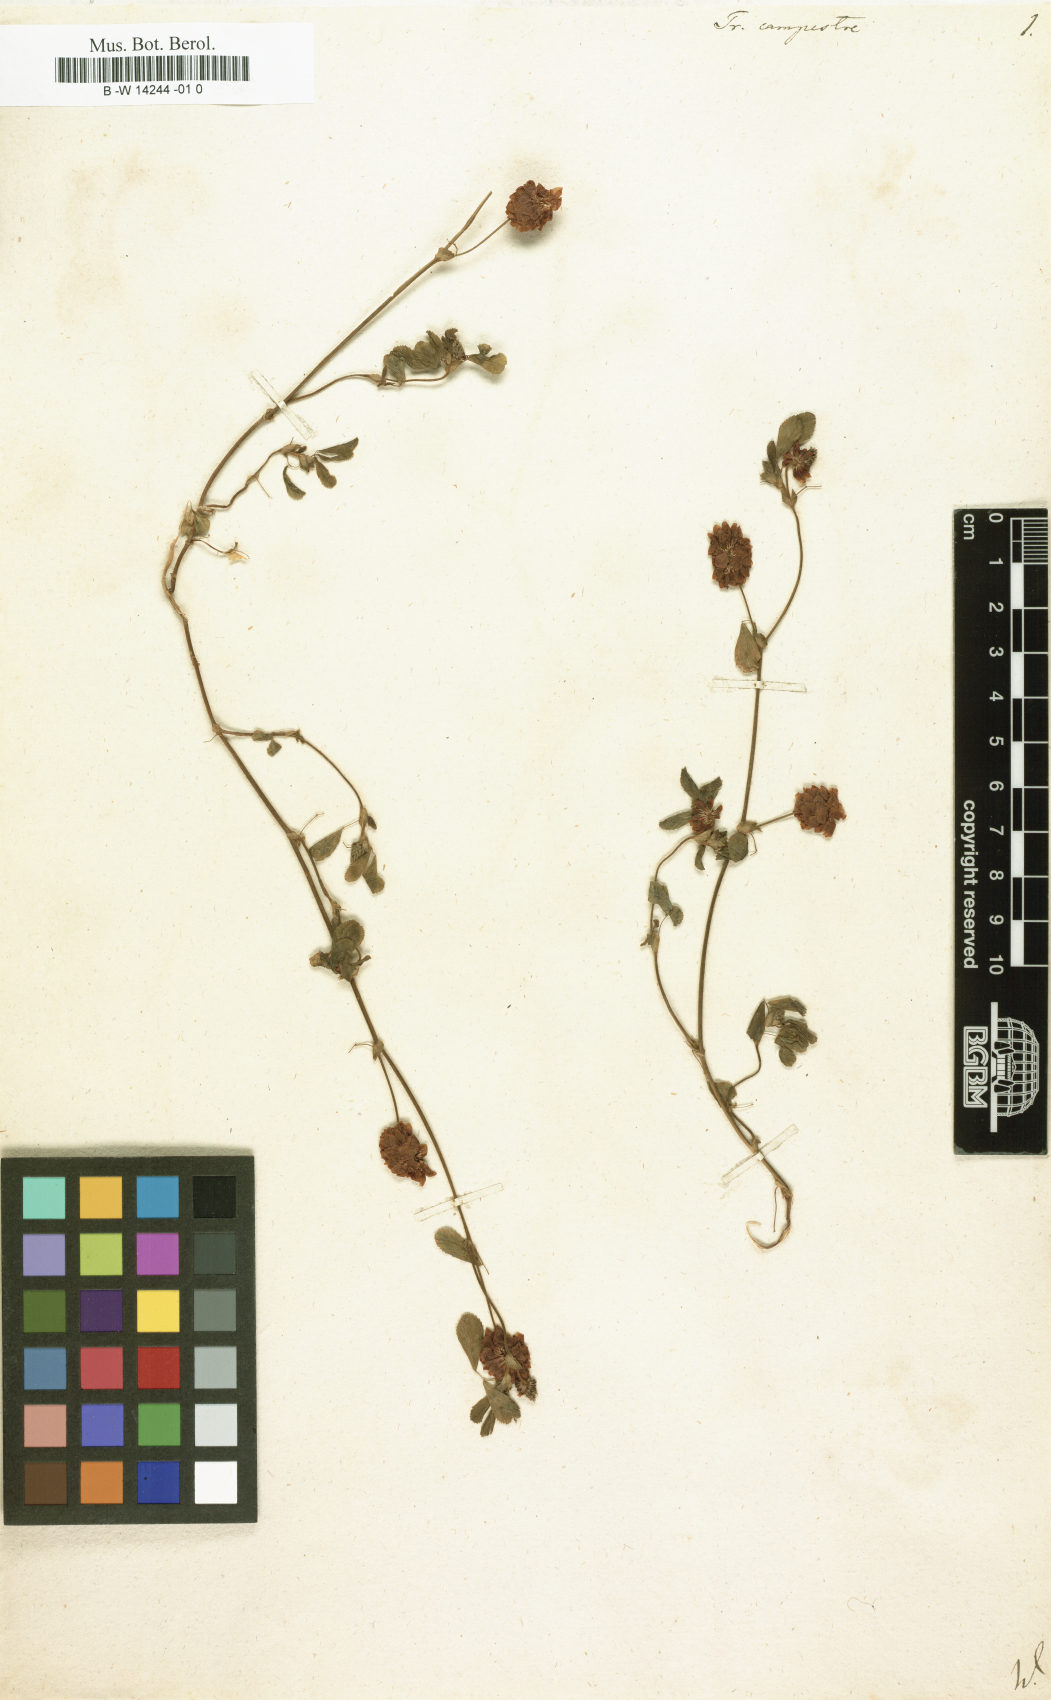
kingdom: Plantae
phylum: Tracheophyta
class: Magnoliopsida
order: Fabales
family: Fabaceae
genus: Trifolium
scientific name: Trifolium campestre
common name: Field clover
